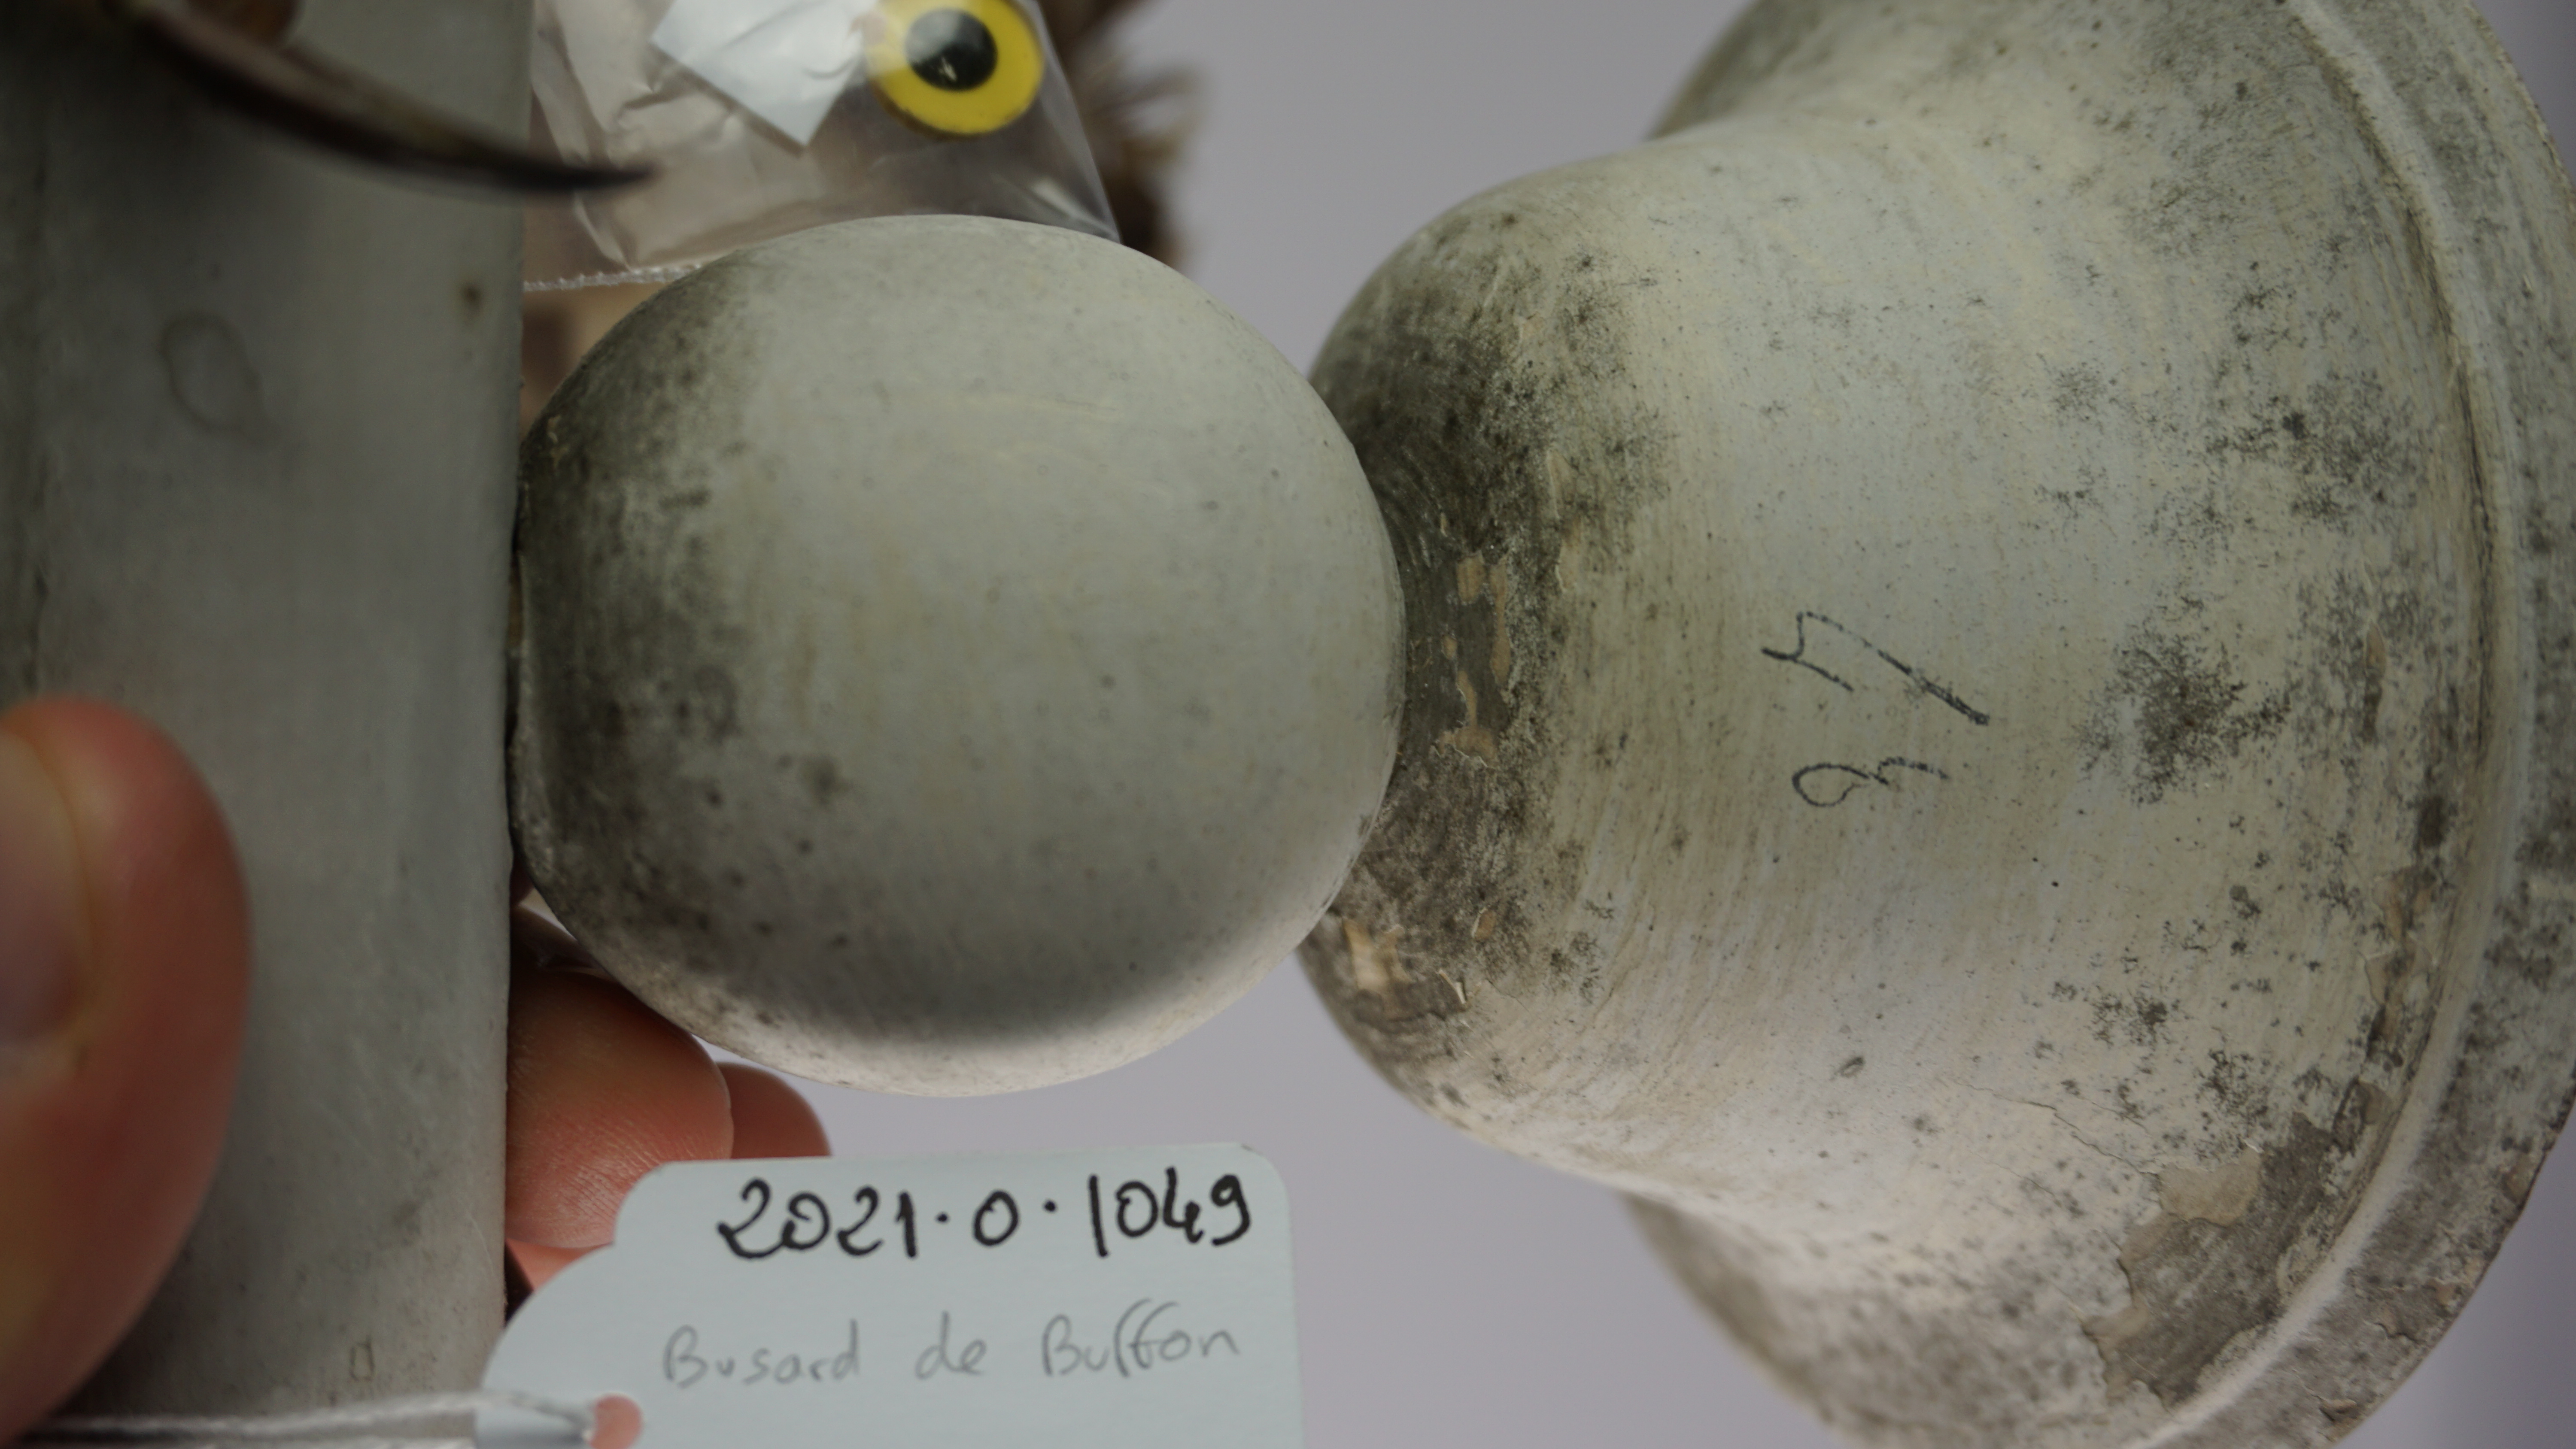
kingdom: Animalia
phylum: Chordata
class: Aves
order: Accipitriformes
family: Accipitridae
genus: Circus
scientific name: Circus buffoni
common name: Long-winged harrier
